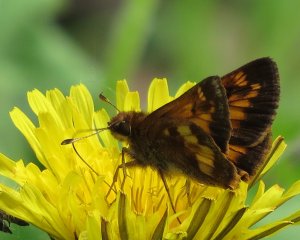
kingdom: Animalia
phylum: Arthropoda
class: Insecta
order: Lepidoptera
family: Hesperiidae
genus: Polites
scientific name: Polites coras
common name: Peck's Skipper
